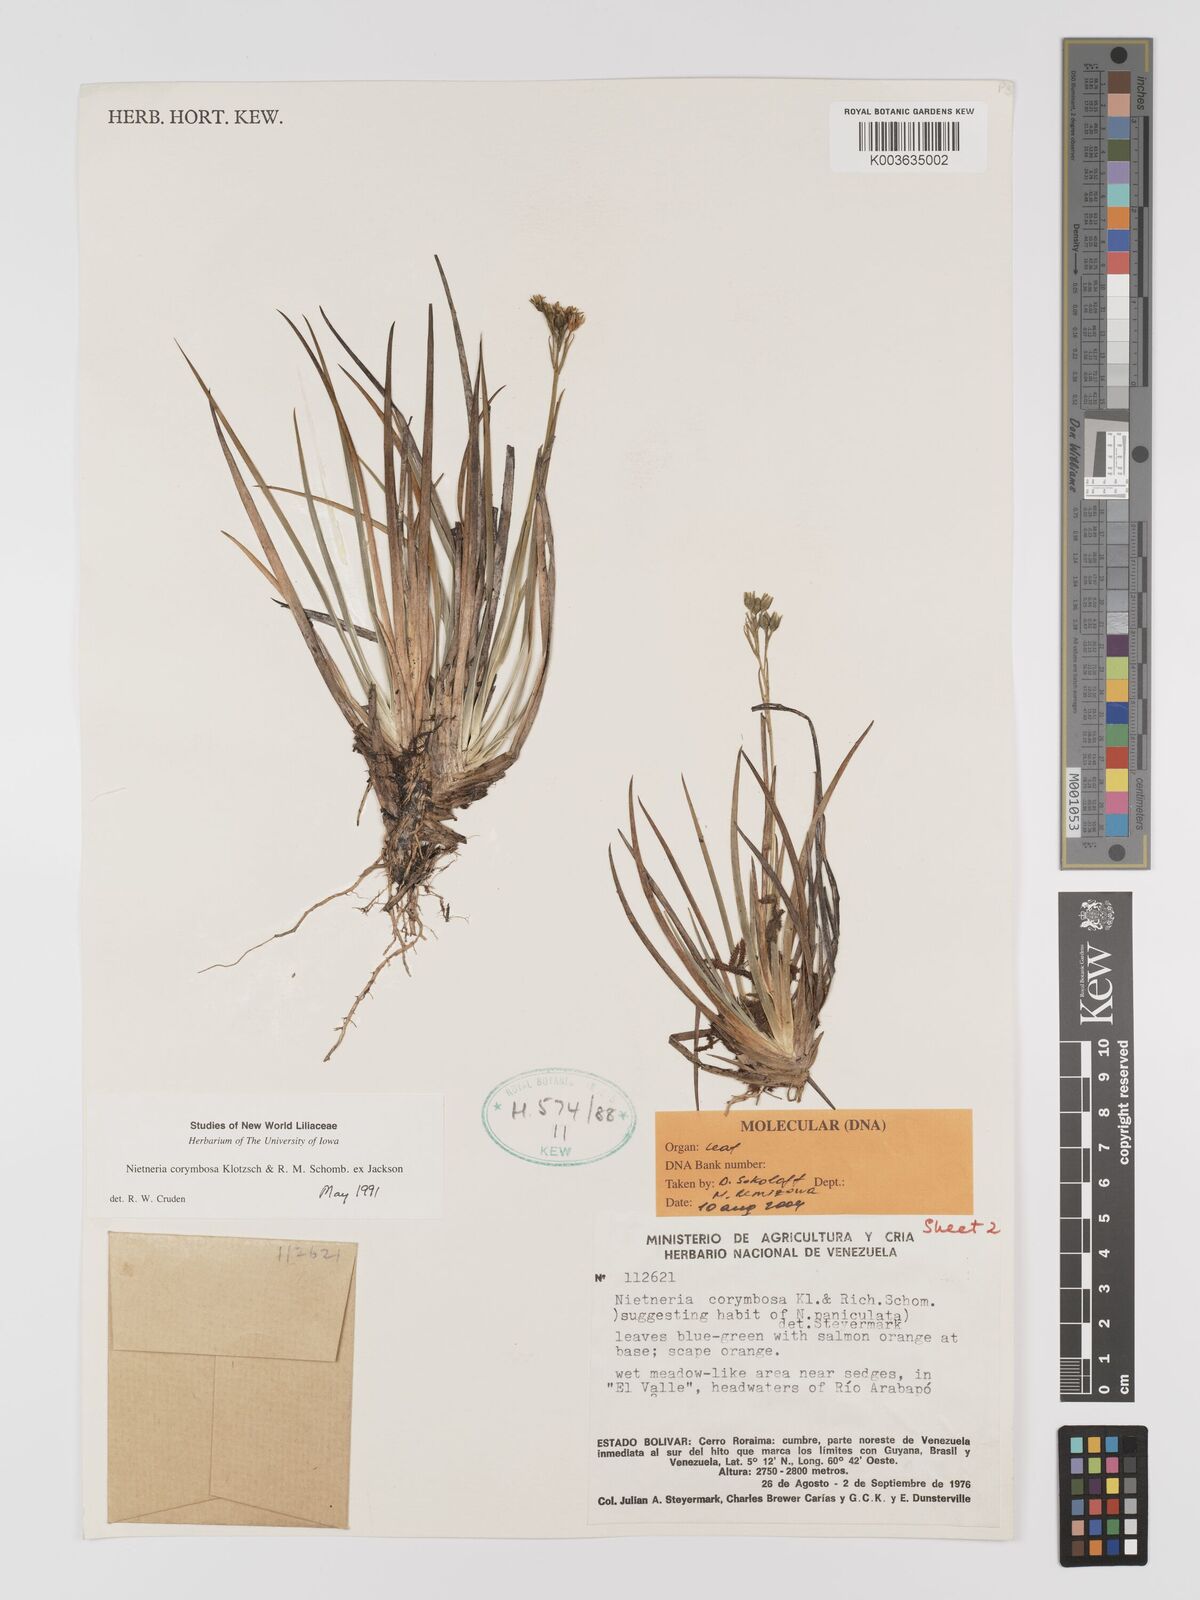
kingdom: Plantae
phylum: Tracheophyta
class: Liliopsida
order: Dioscoreales
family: Nartheciaceae
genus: Nietneria
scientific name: Nietneria corymbosa
